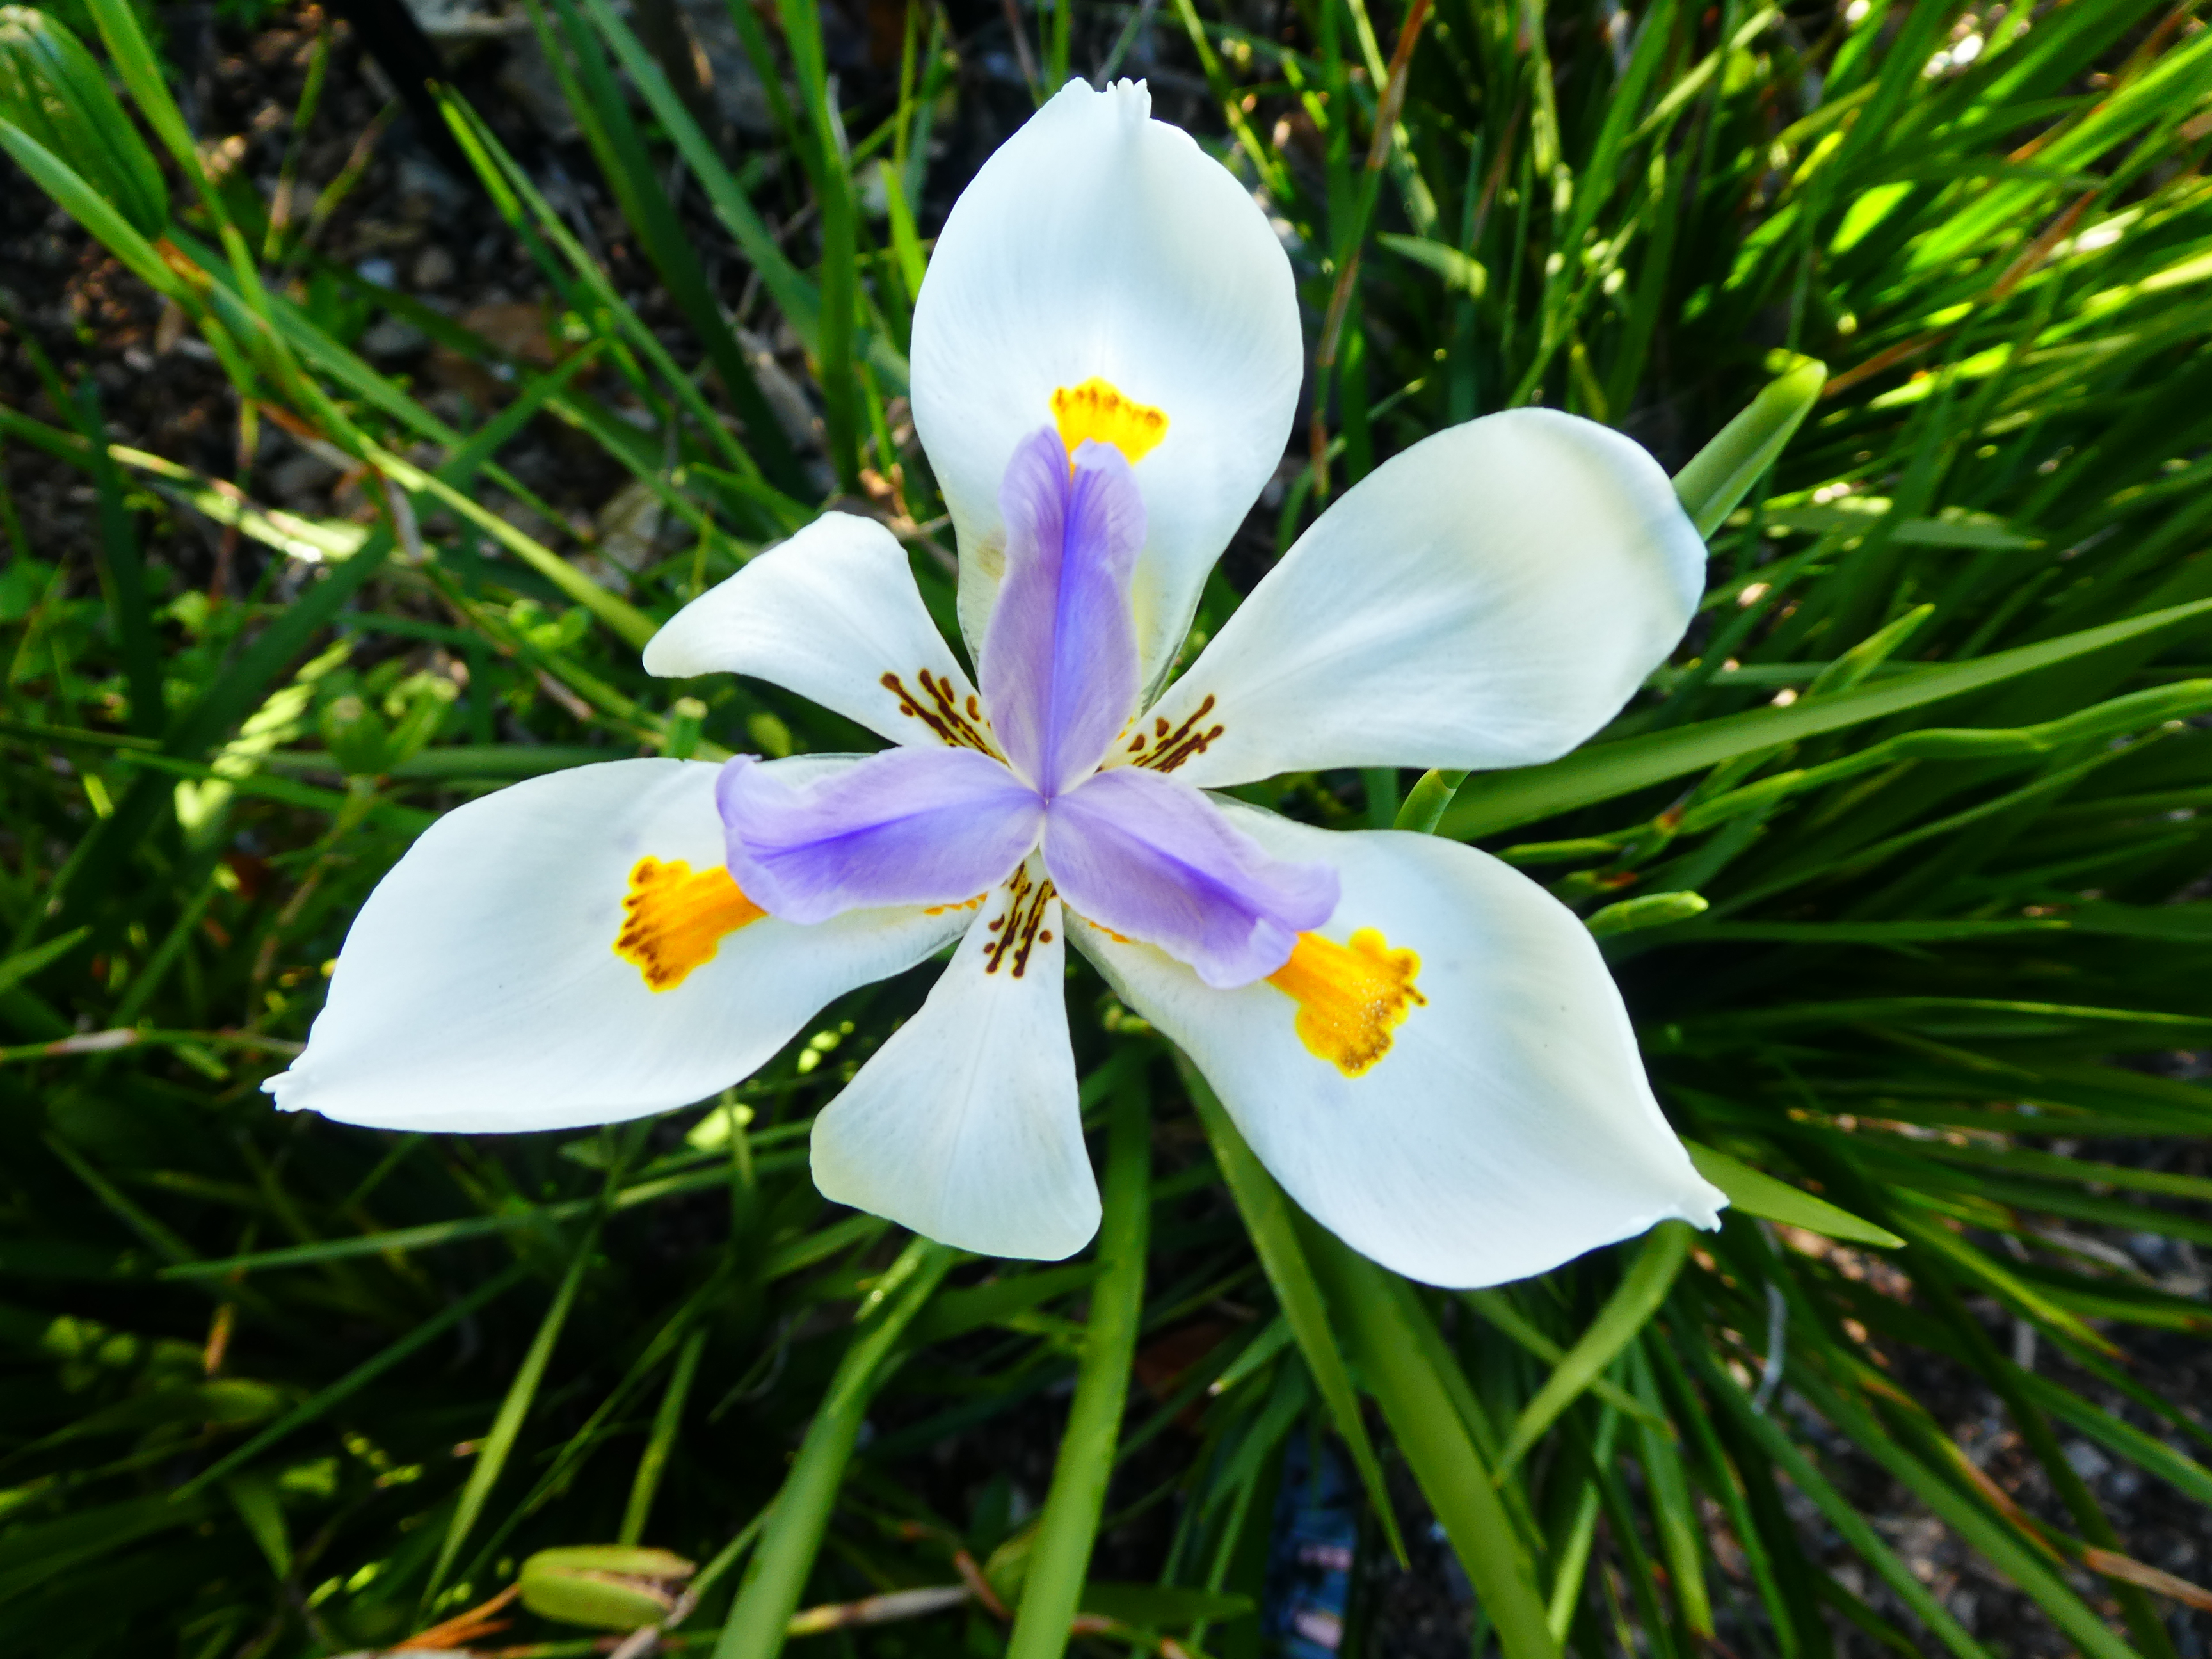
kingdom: Plantae
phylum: Tracheophyta
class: Liliopsida
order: Asparagales
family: Iridaceae
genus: Dietes
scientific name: Dietes grandiflora
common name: Wild iris
